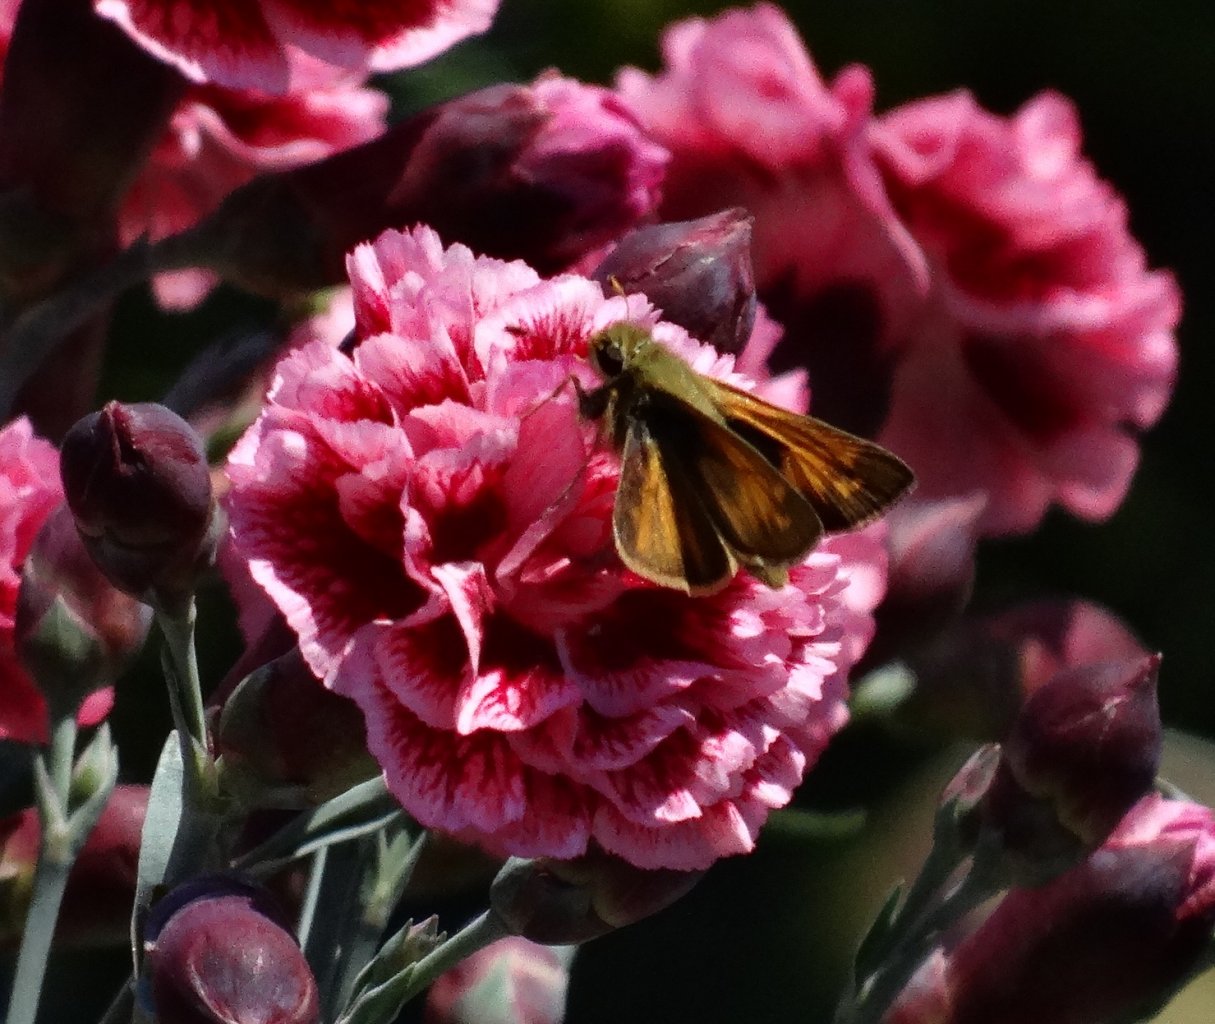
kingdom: Animalia
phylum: Arthropoda
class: Insecta
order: Lepidoptera
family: Hesperiidae
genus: Atalopedes
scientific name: Atalopedes campestris
